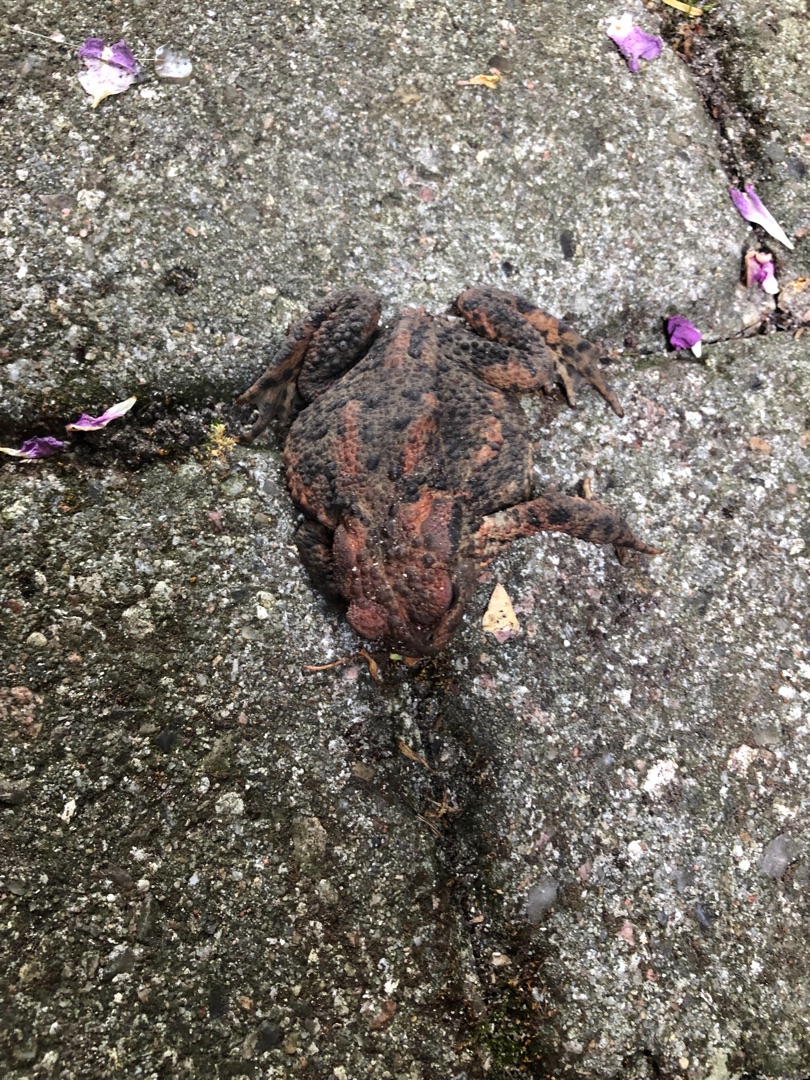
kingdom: Animalia
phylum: Chordata
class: Amphibia
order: Anura
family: Bufonidae
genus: Bufo
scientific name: Bufo bufo
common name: Skrubtudse
